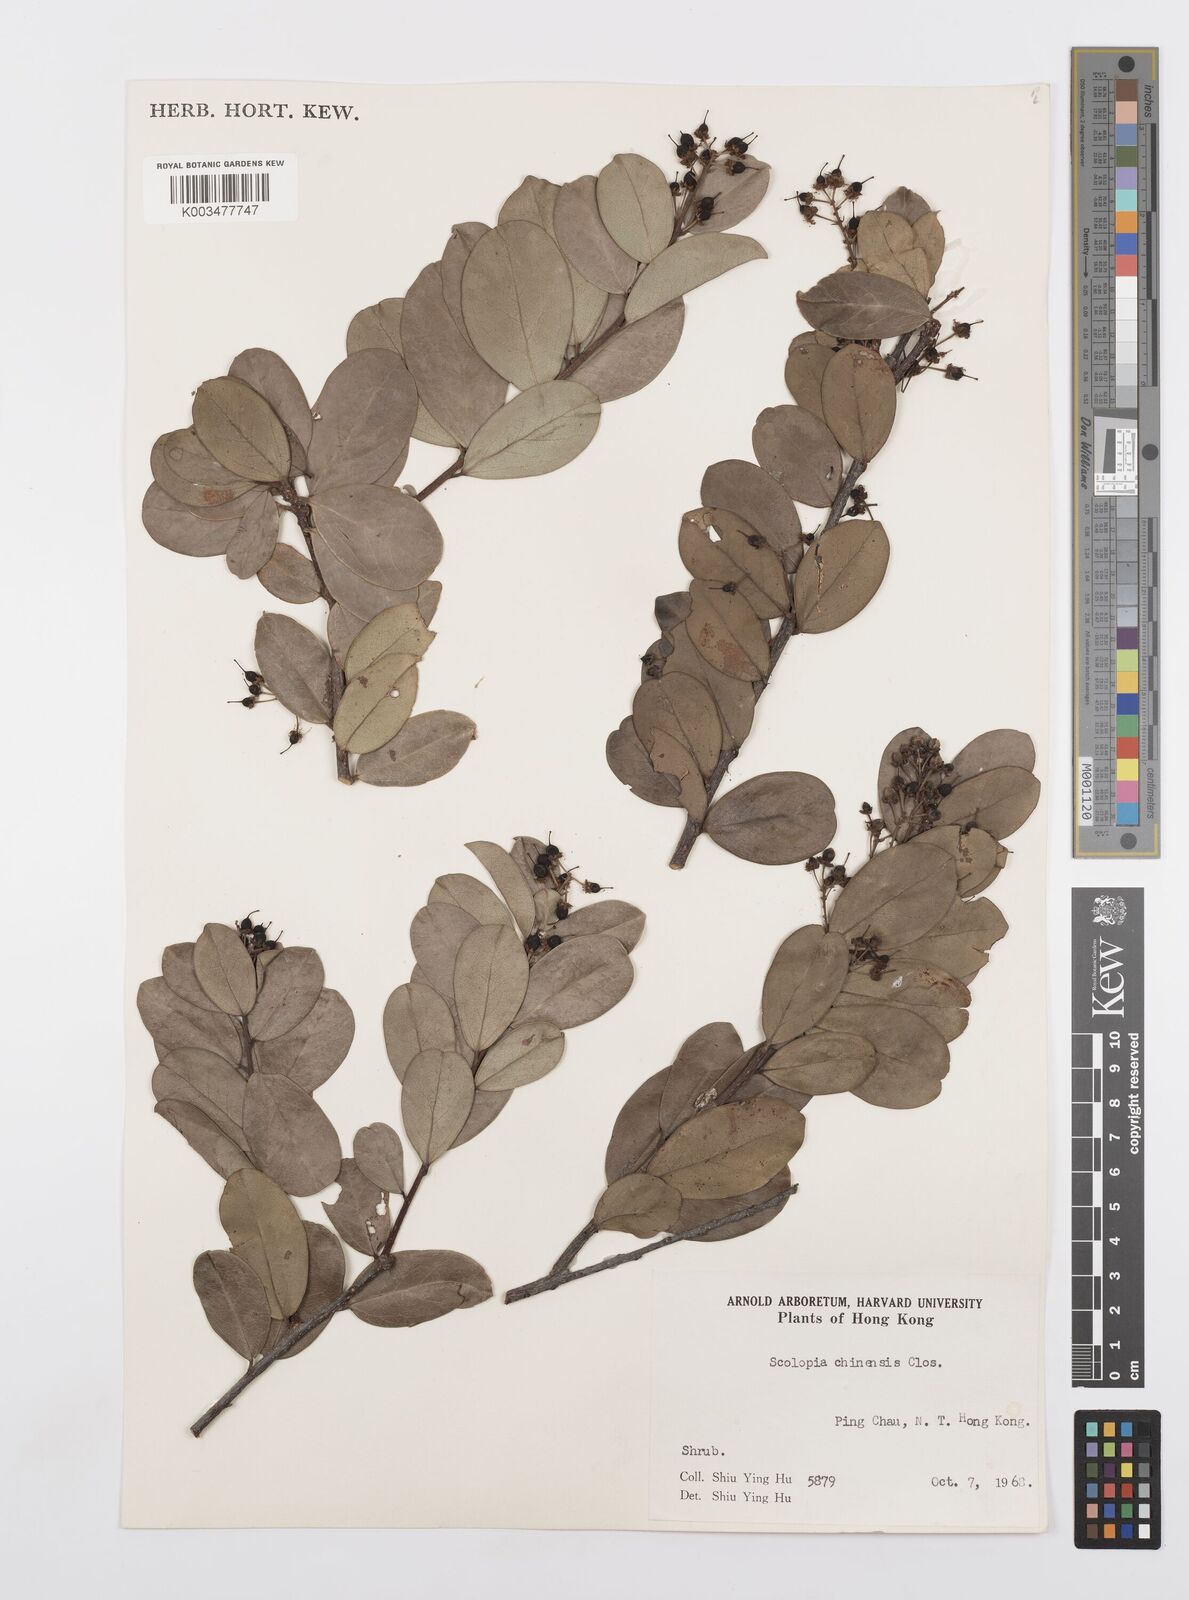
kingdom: Plantae
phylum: Tracheophyta
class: Magnoliopsida
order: Malpighiales
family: Salicaceae
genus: Scolopia
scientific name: Scolopia chinensis
